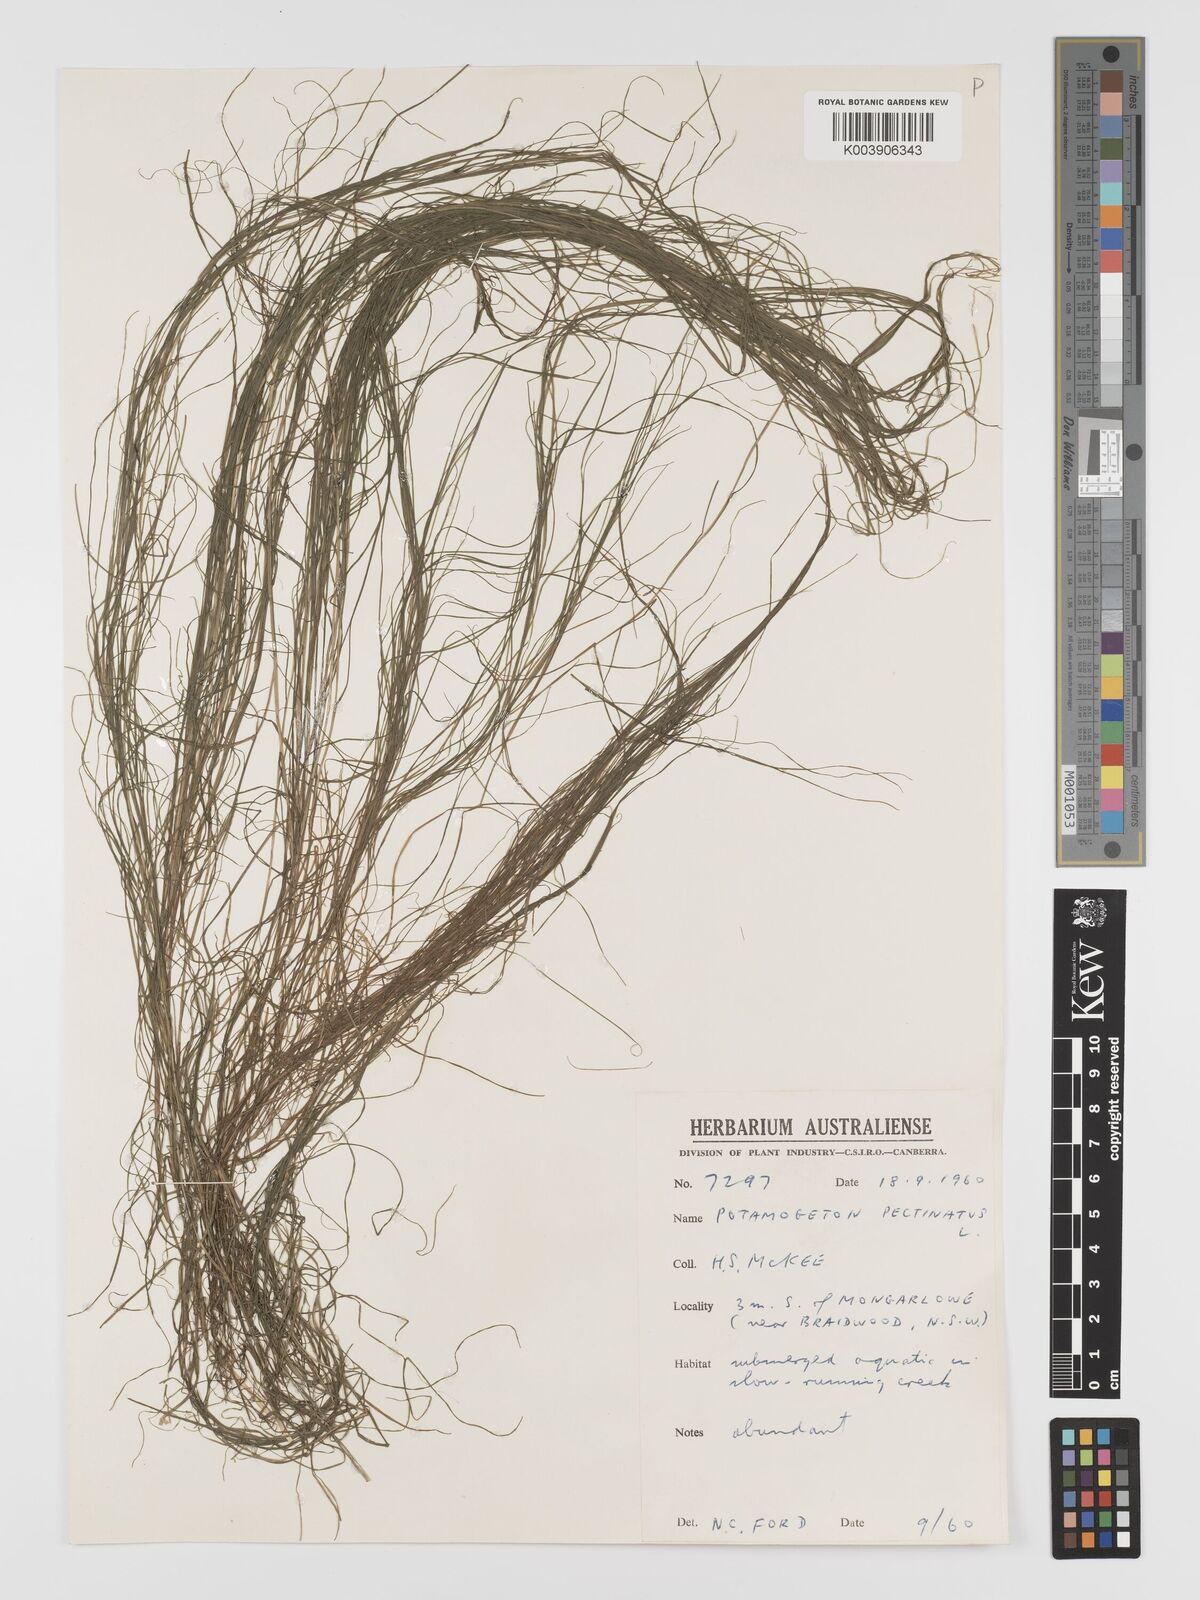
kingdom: Plantae
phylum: Tracheophyta
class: Liliopsida
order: Alismatales
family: Potamogetonaceae
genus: Stuckenia
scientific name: Stuckenia pectinata
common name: Sago pondweed
